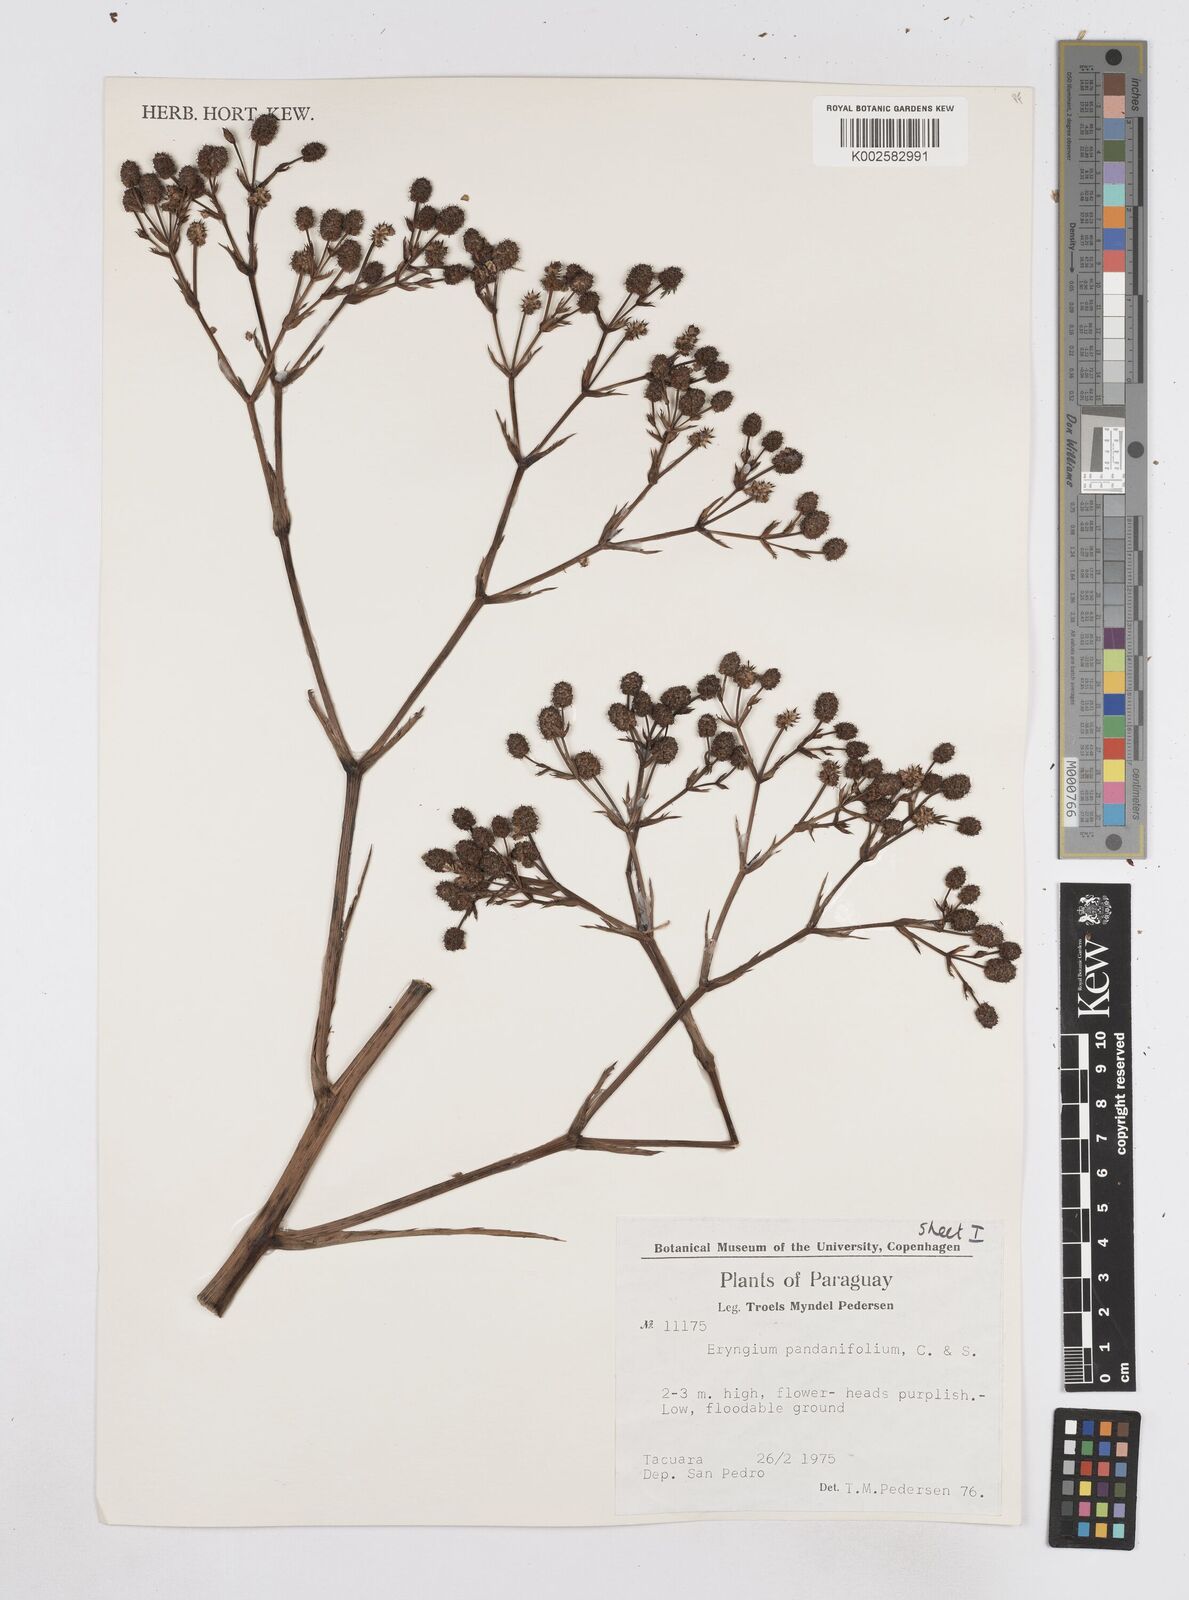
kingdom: Plantae
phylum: Tracheophyta
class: Magnoliopsida
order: Apiales
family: Apiaceae
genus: Eryngium
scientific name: Eryngium pandanifolium
